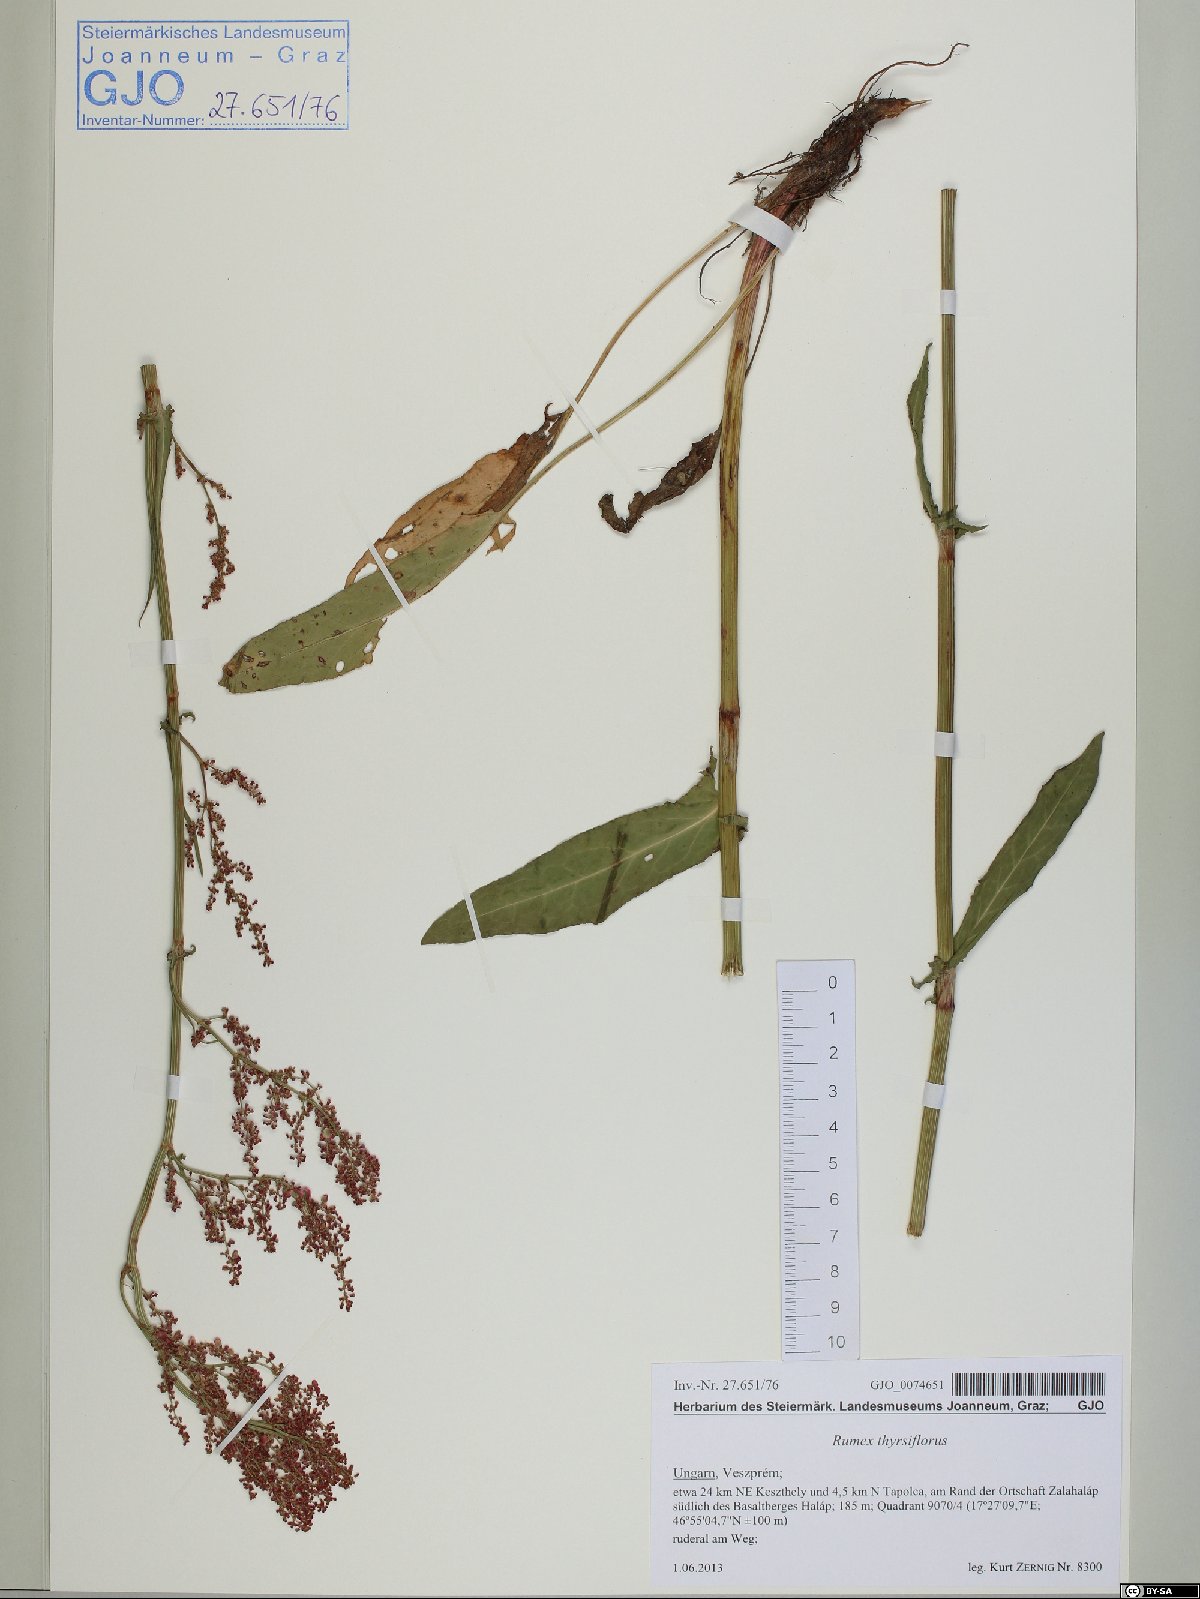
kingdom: Plantae
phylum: Tracheophyta
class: Magnoliopsida
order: Caryophyllales
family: Polygonaceae
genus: Rumex
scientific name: Rumex thyrsiflorus
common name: Garden sorrel
